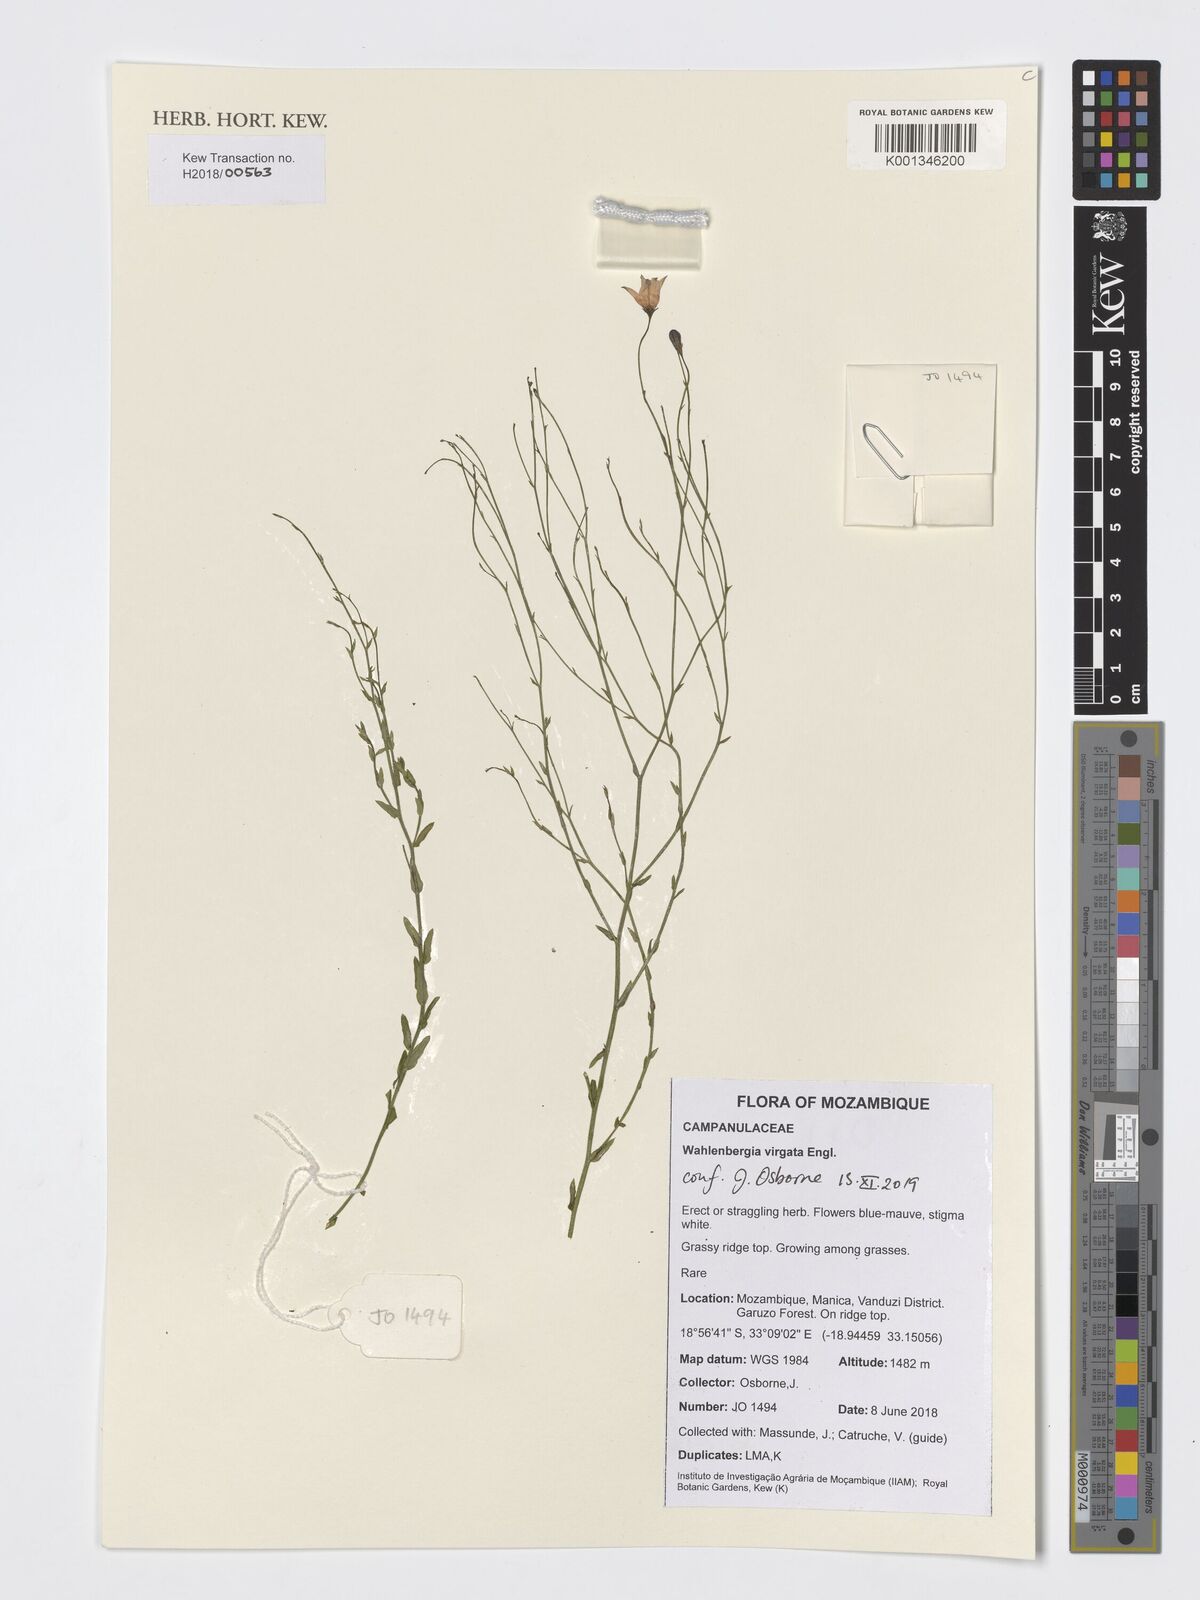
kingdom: Plantae
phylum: Tracheophyta
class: Magnoliopsida
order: Asterales
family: Campanulaceae
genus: Wahlenbergia
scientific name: Wahlenbergia virgata
